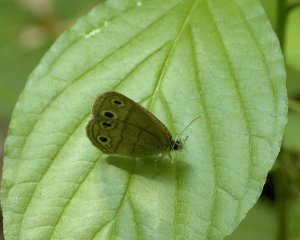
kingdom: Animalia
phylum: Arthropoda
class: Insecta
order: Lepidoptera
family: Nymphalidae
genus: Euptychia
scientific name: Euptychia cymela
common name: Little Wood Satyr
